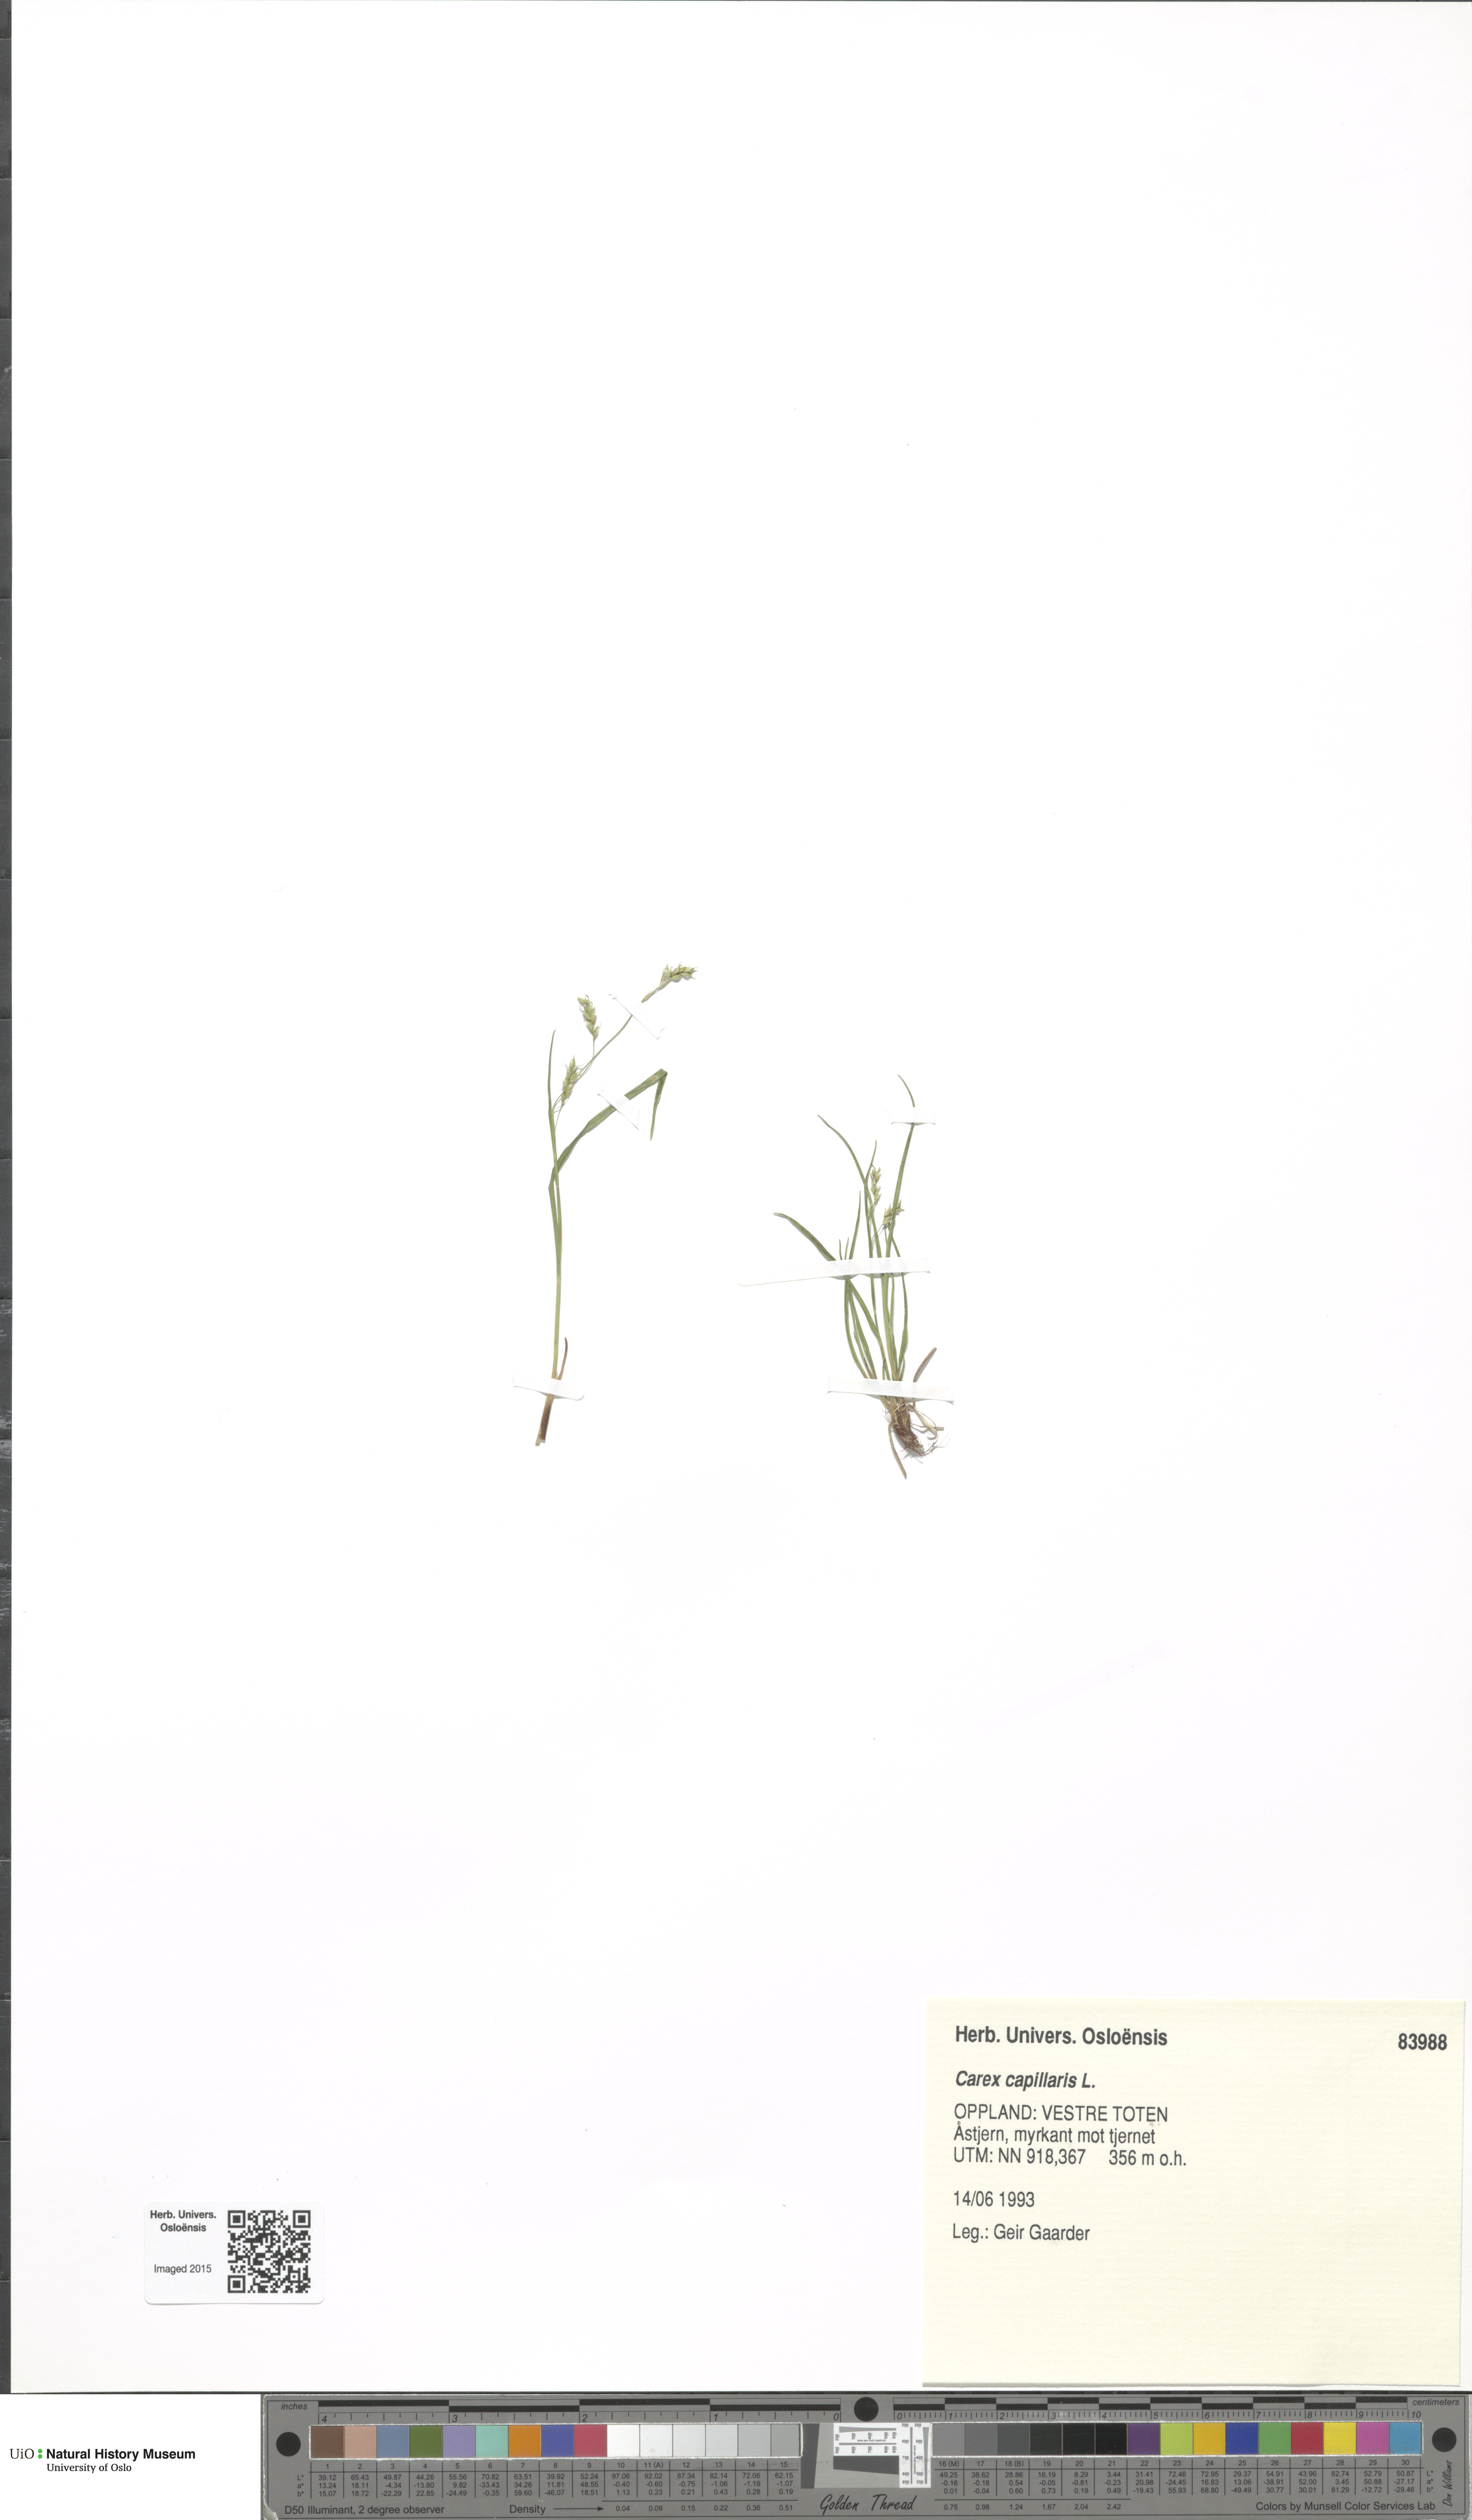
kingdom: Plantae
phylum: Tracheophyta
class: Liliopsida
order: Poales
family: Cyperaceae
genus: Carex
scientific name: Carex capillaris
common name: Hair sedge
